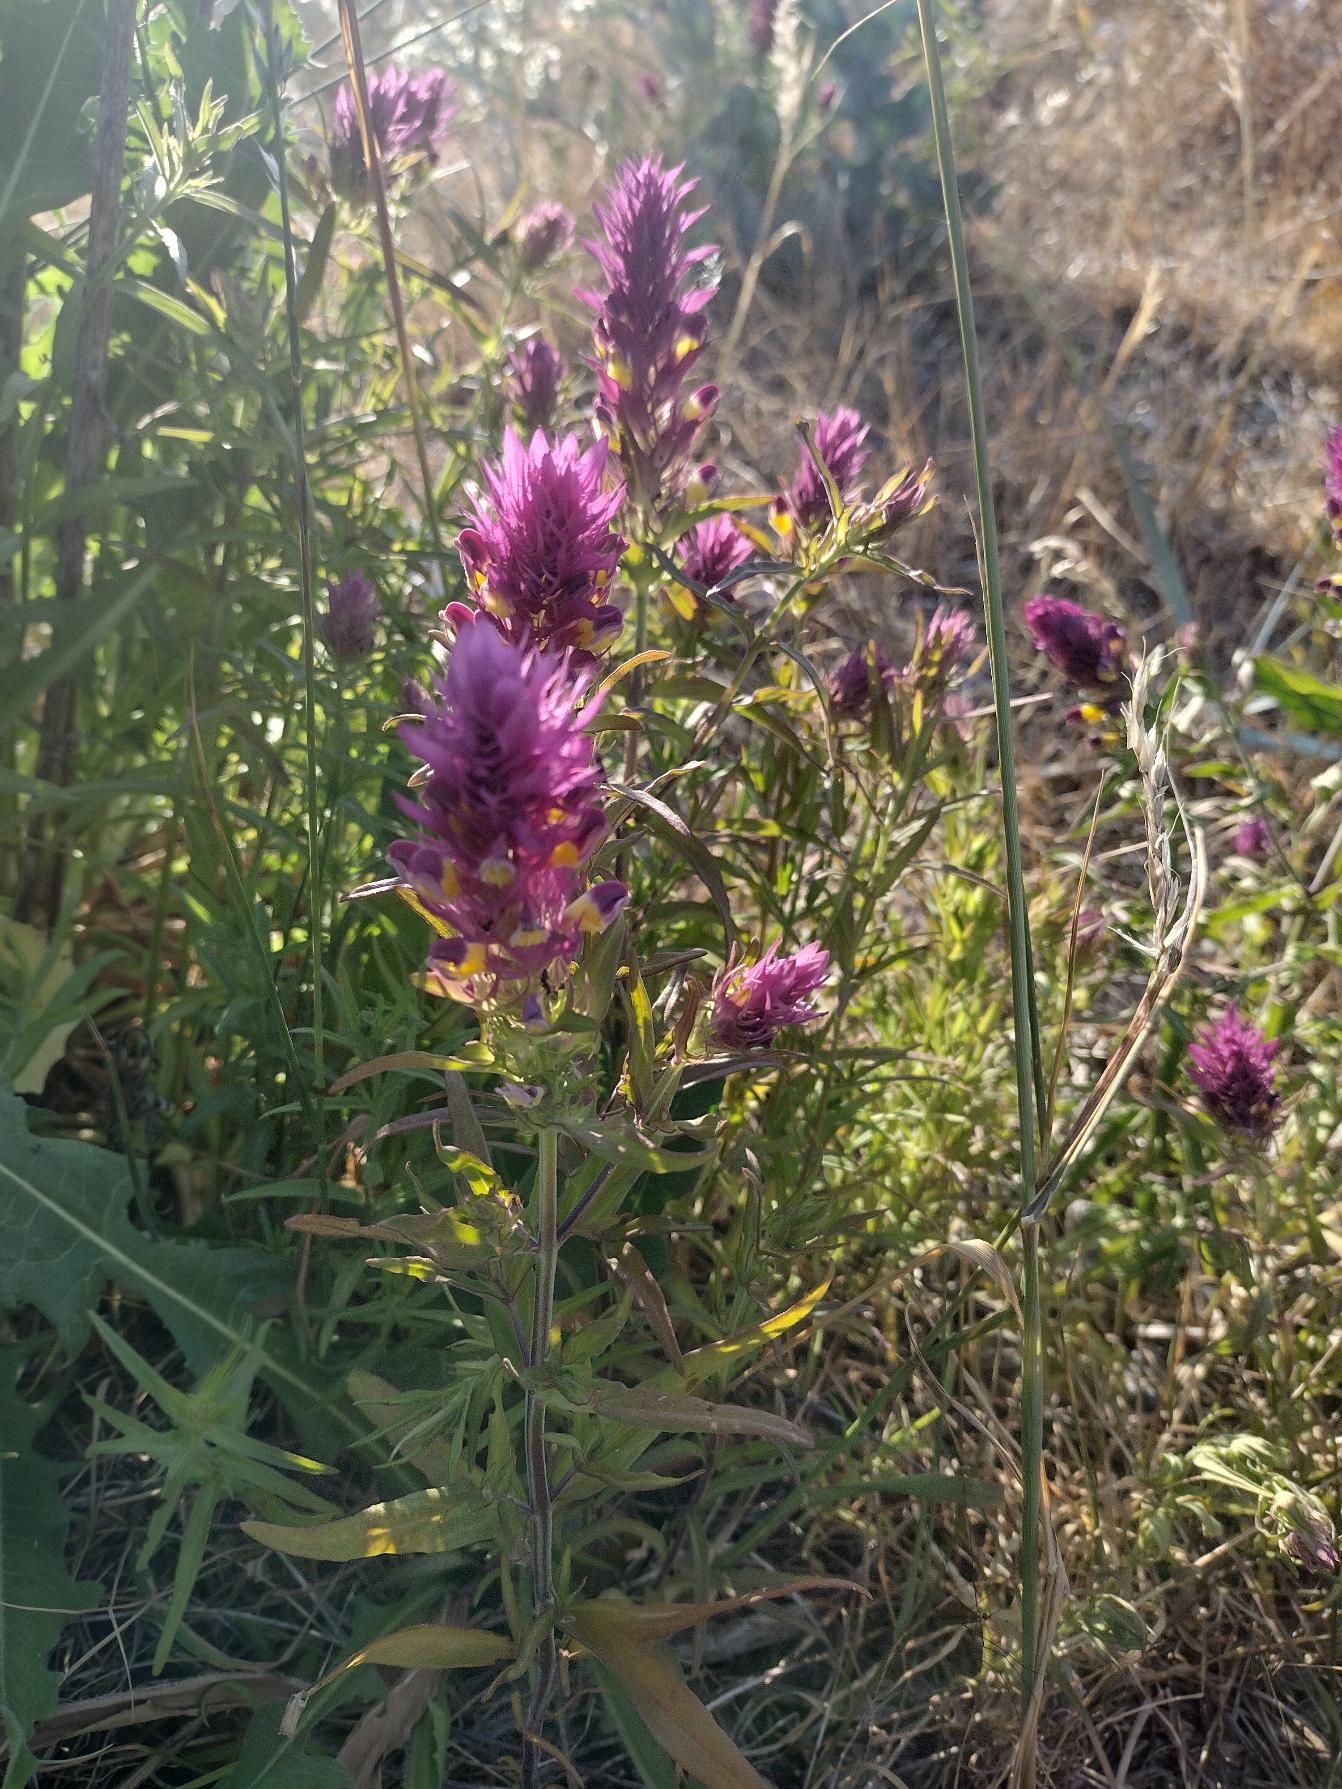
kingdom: Plantae
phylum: Tracheophyta
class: Magnoliopsida
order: Lamiales
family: Orobanchaceae
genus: Melampyrum
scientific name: Melampyrum arvense
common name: Ager-kohvede
